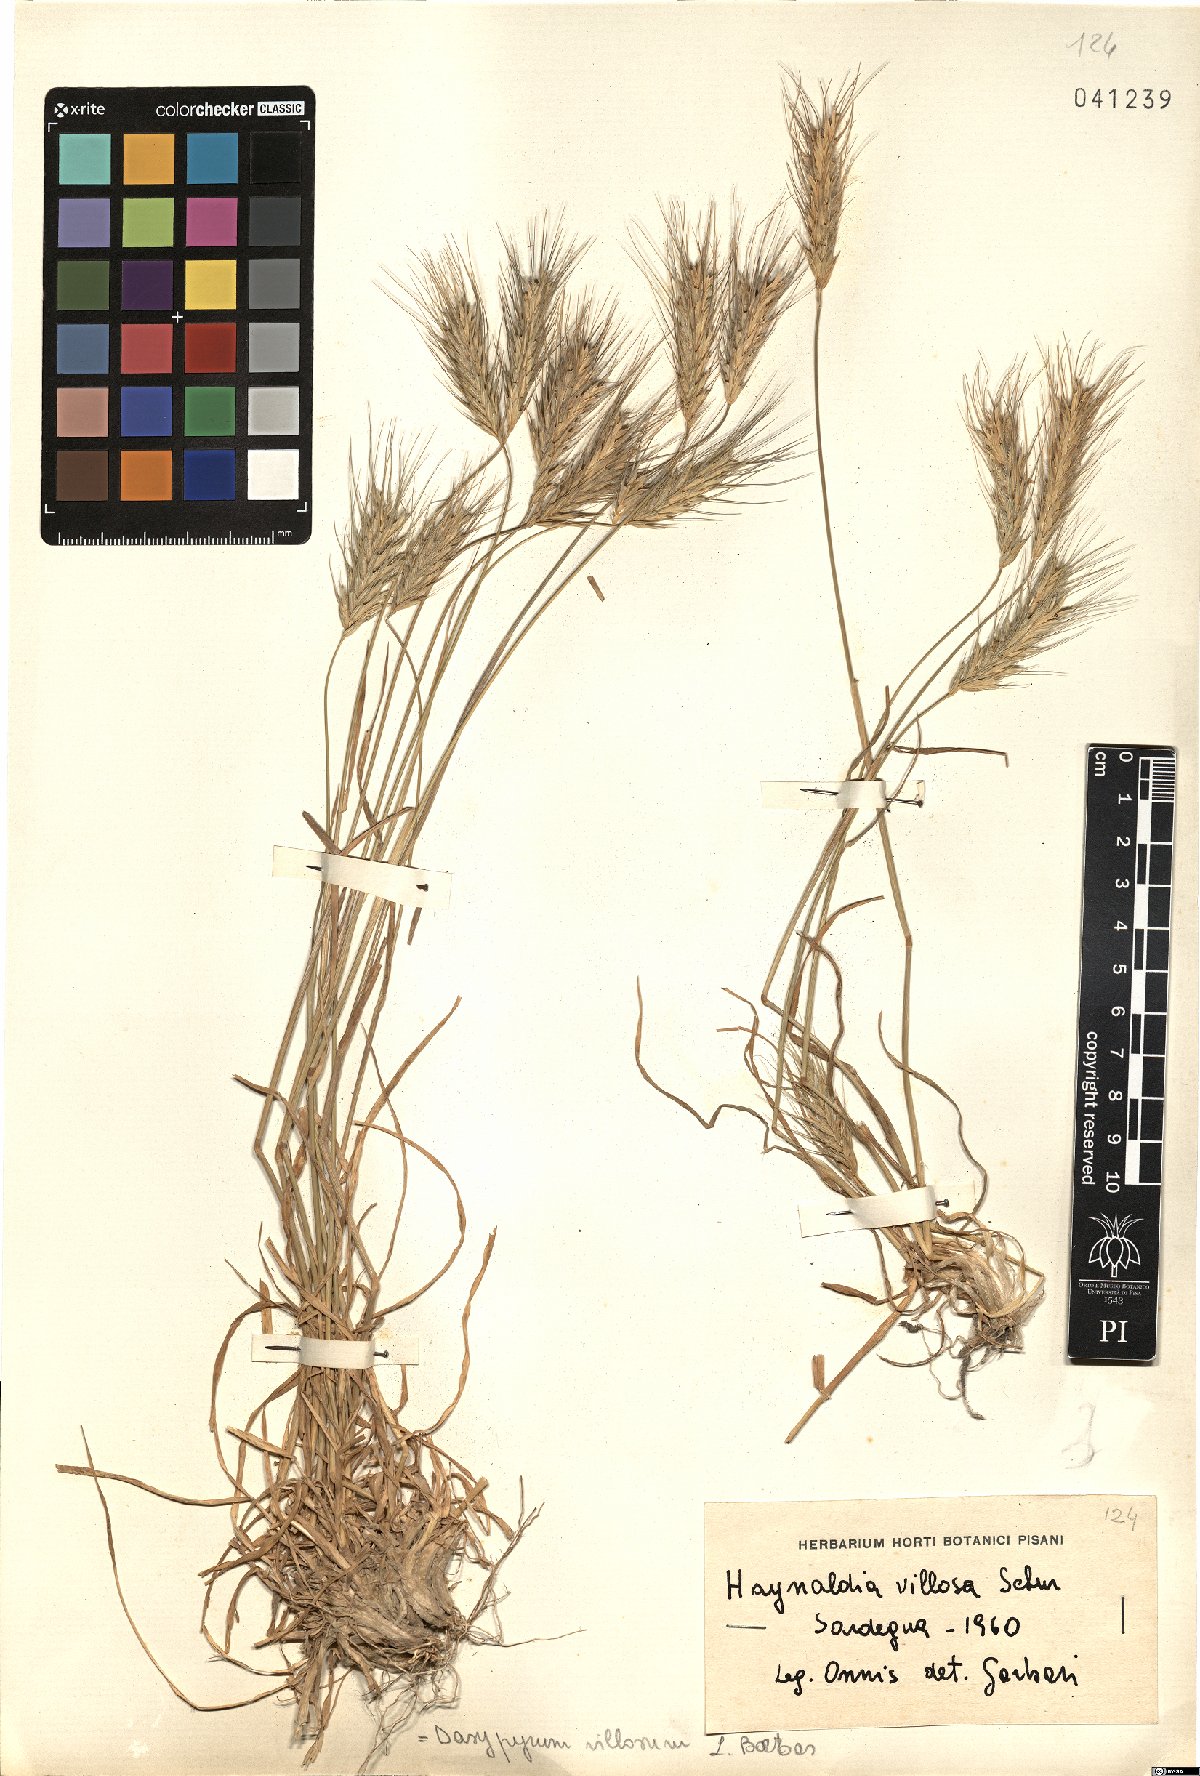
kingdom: Plantae
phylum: Tracheophyta
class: Liliopsida
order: Poales
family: Poaceae
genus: Dasypyrum
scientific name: Dasypyrum villosum
